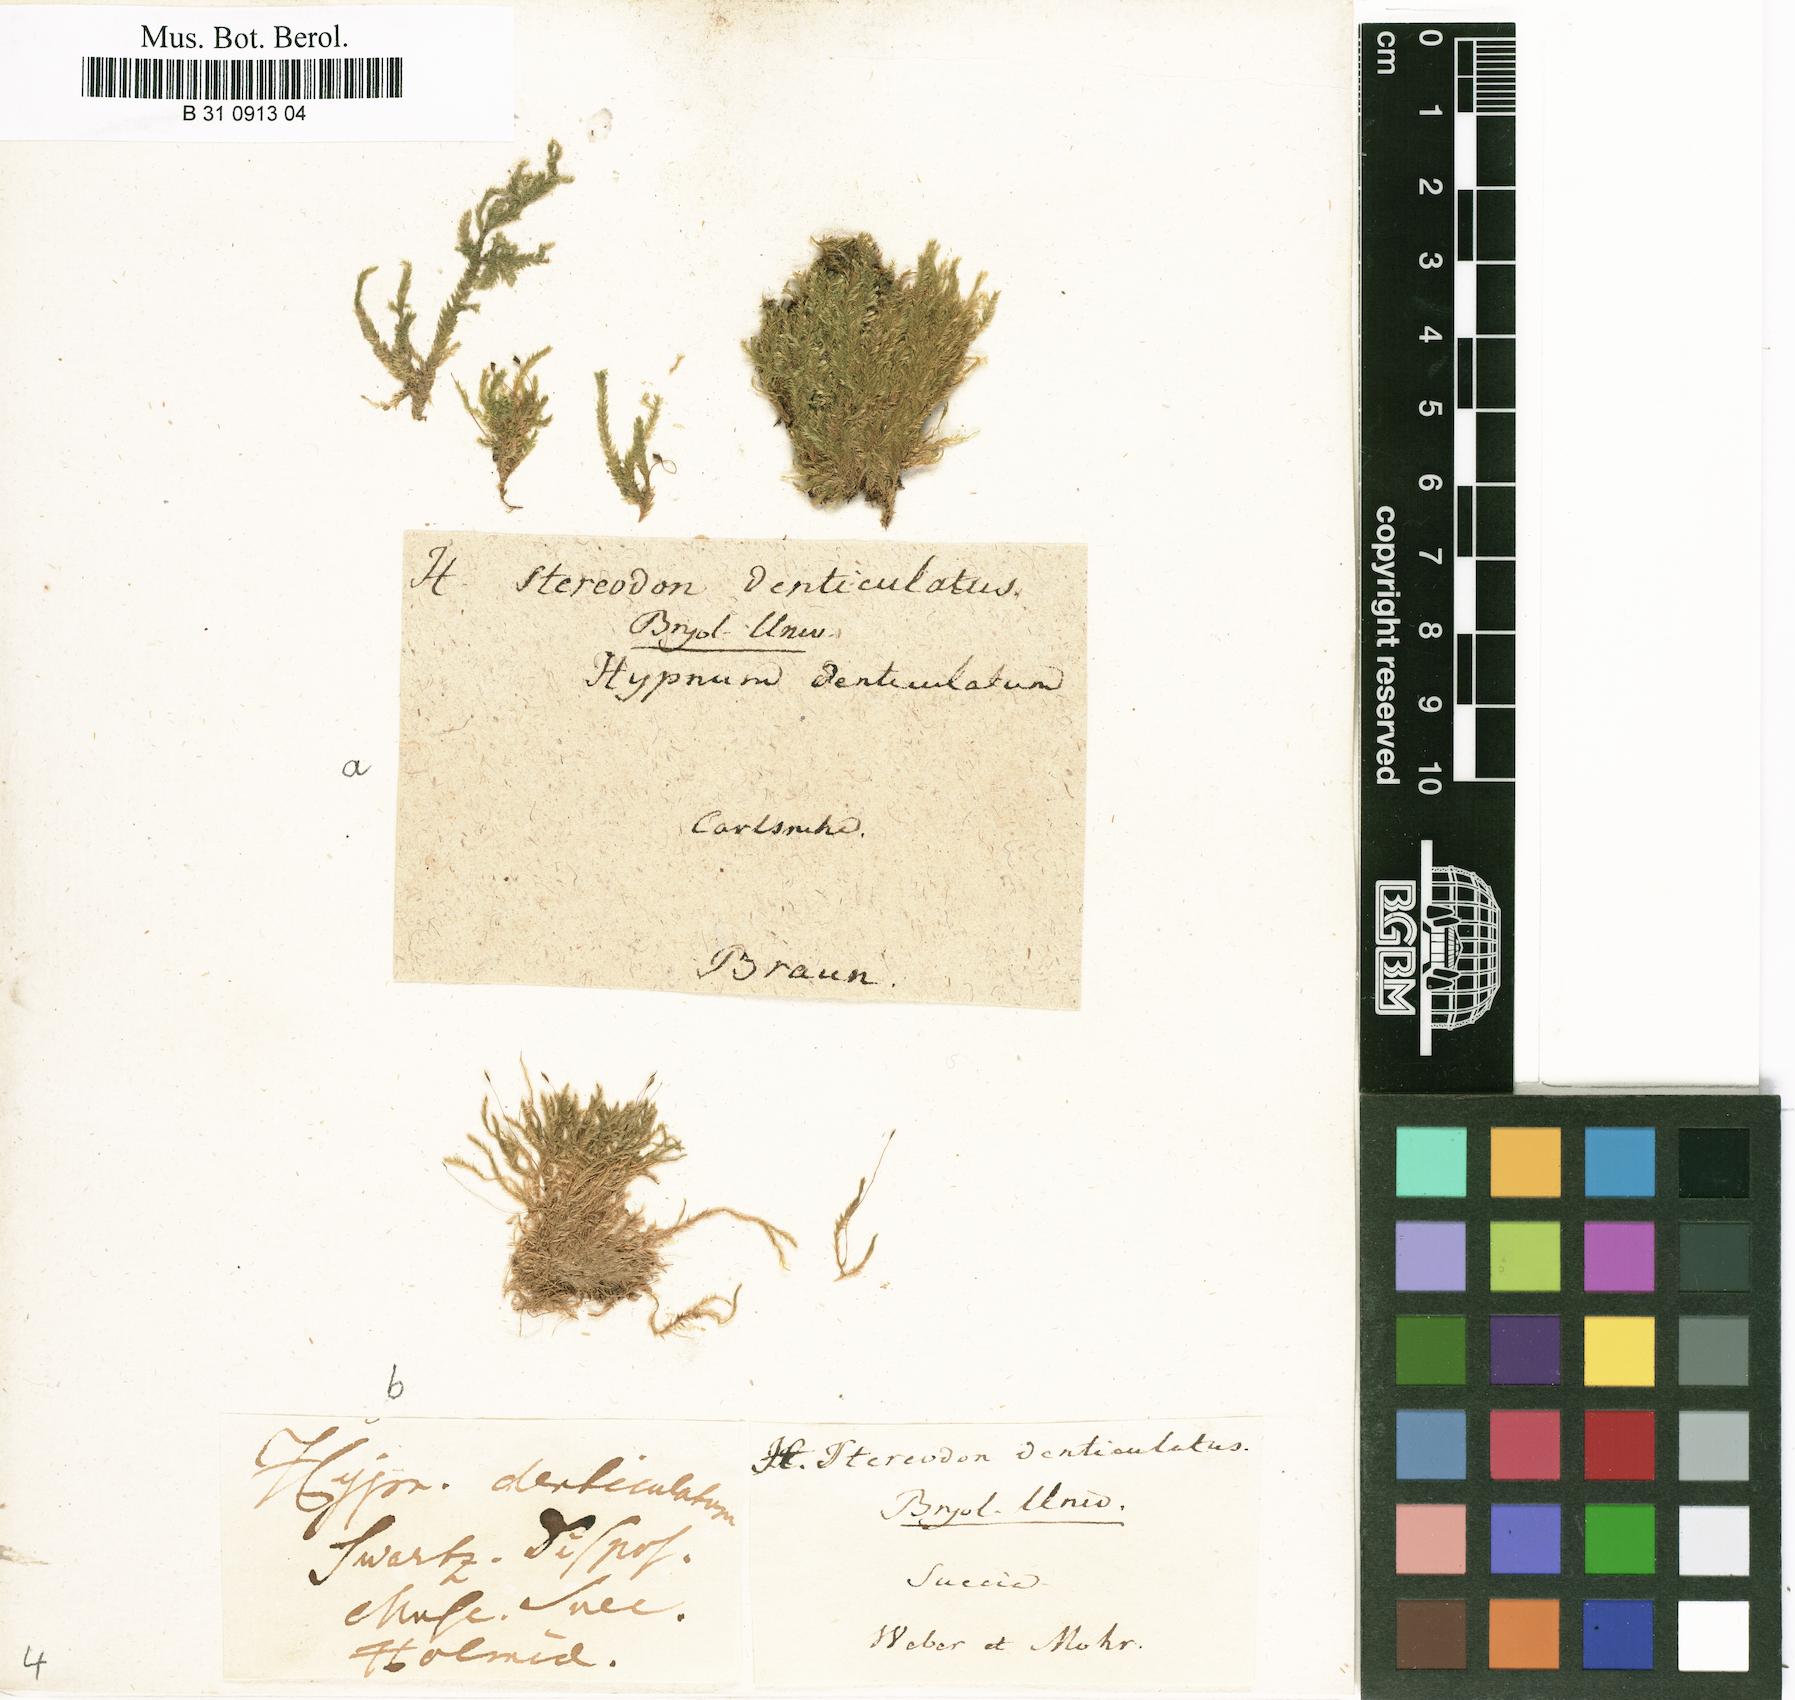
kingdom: Plantae
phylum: Bryophyta
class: Bryopsida
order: Hypnales
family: Plagiotheciaceae
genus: Plagiothecium
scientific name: Plagiothecium denticulatum
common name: Dented silk moss
